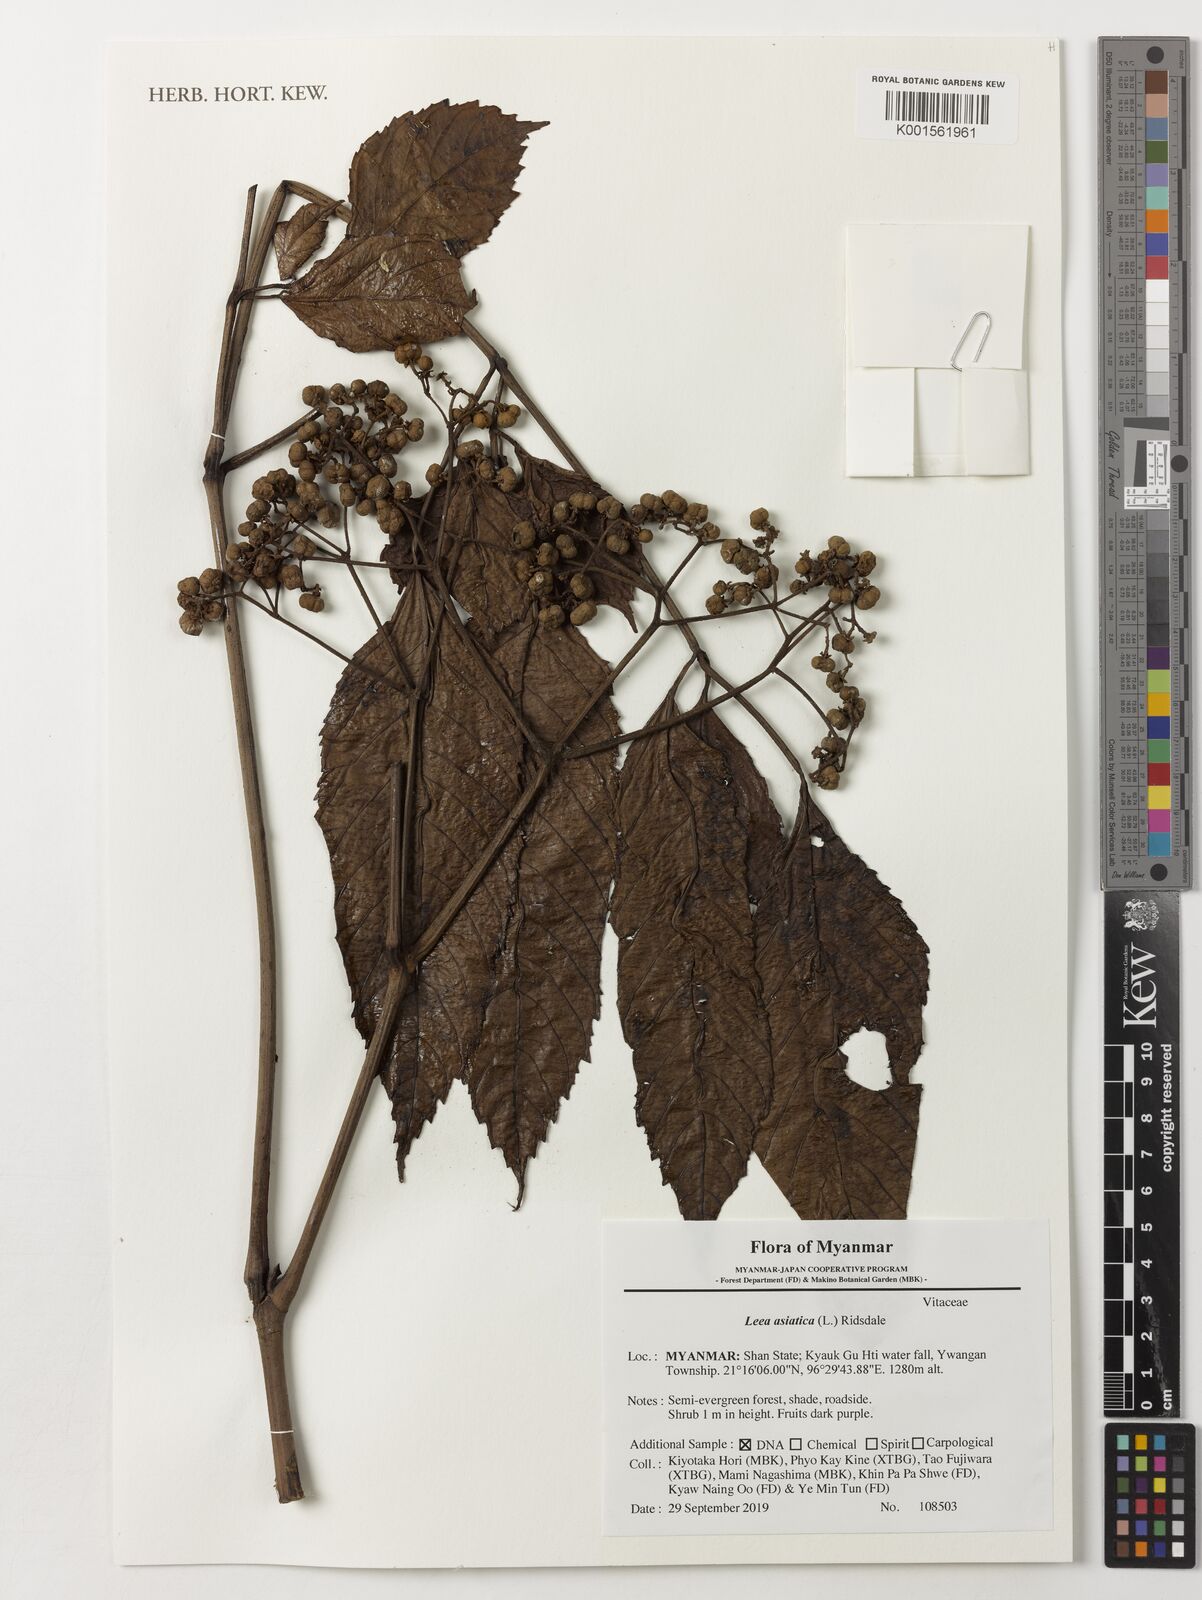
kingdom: Plantae
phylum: Tracheophyta
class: Magnoliopsida
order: Vitales
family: Vitaceae
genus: Leea
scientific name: Leea asiatica
